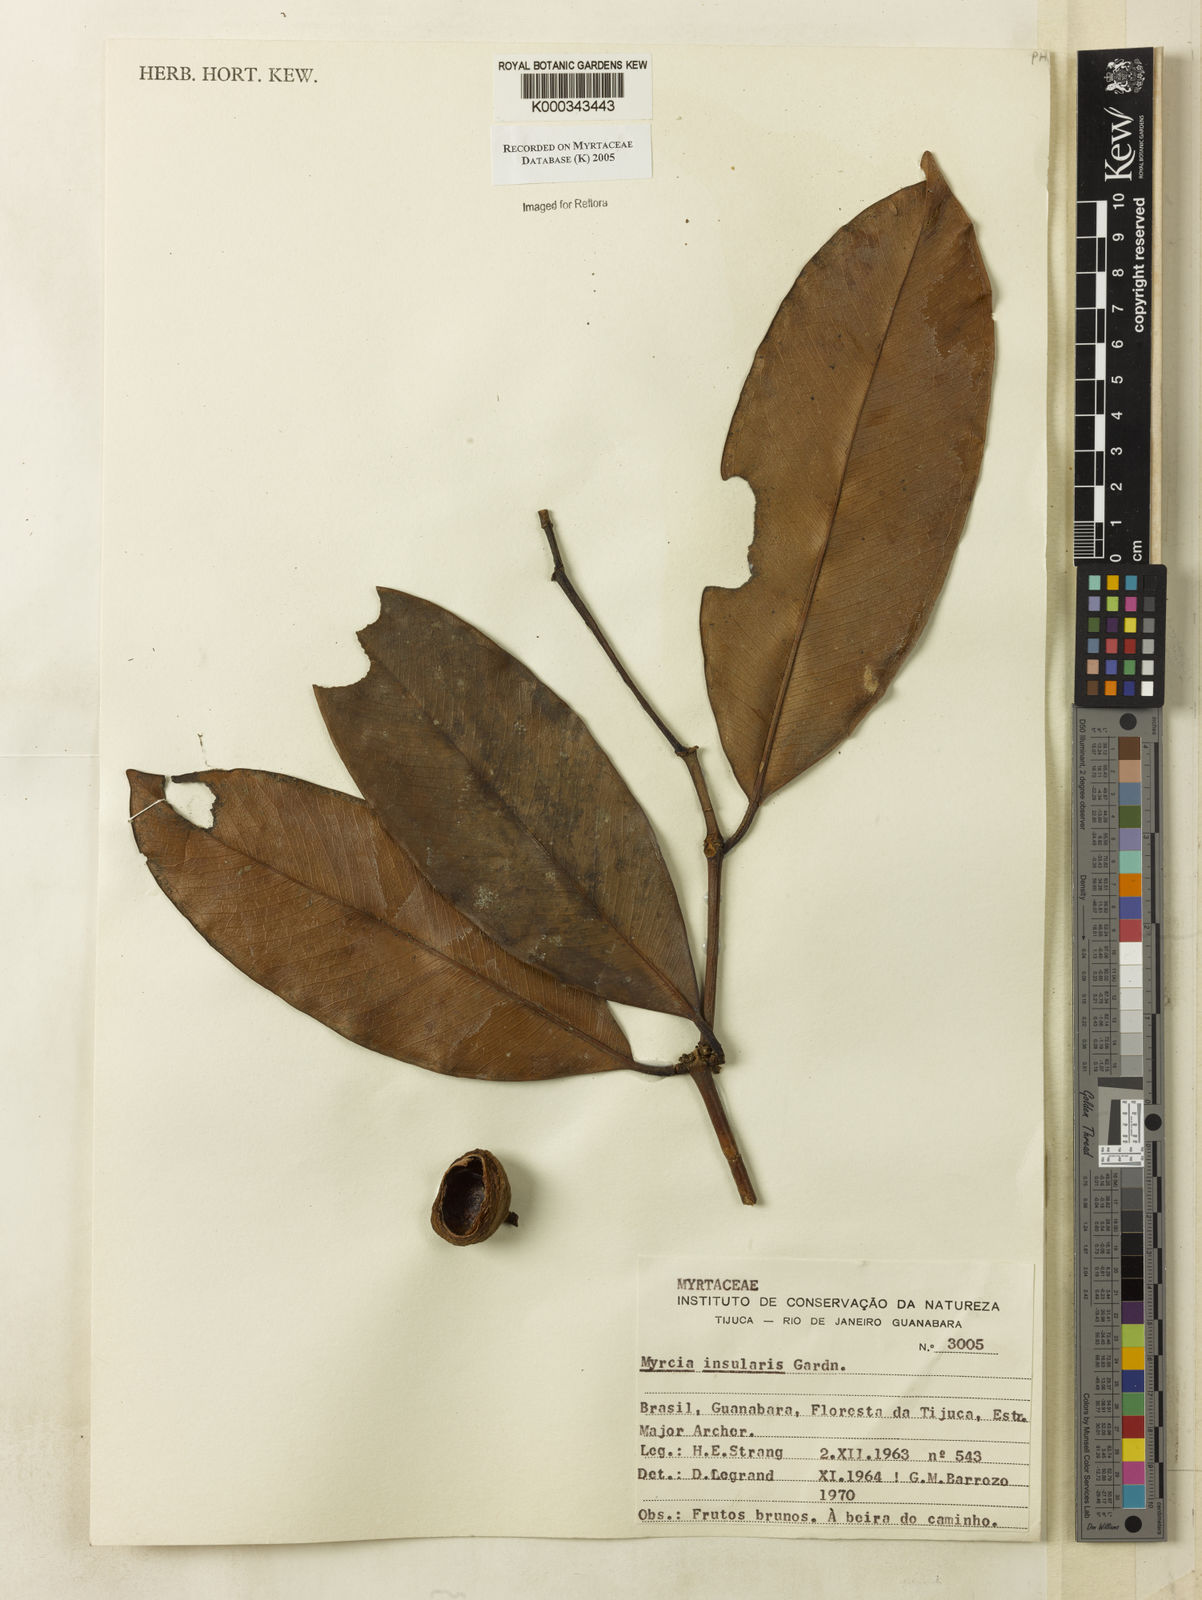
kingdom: Plantae
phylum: Tracheophyta
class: Magnoliopsida
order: Myrtales
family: Myrtaceae
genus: Myrcia
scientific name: Myrcia insularis
